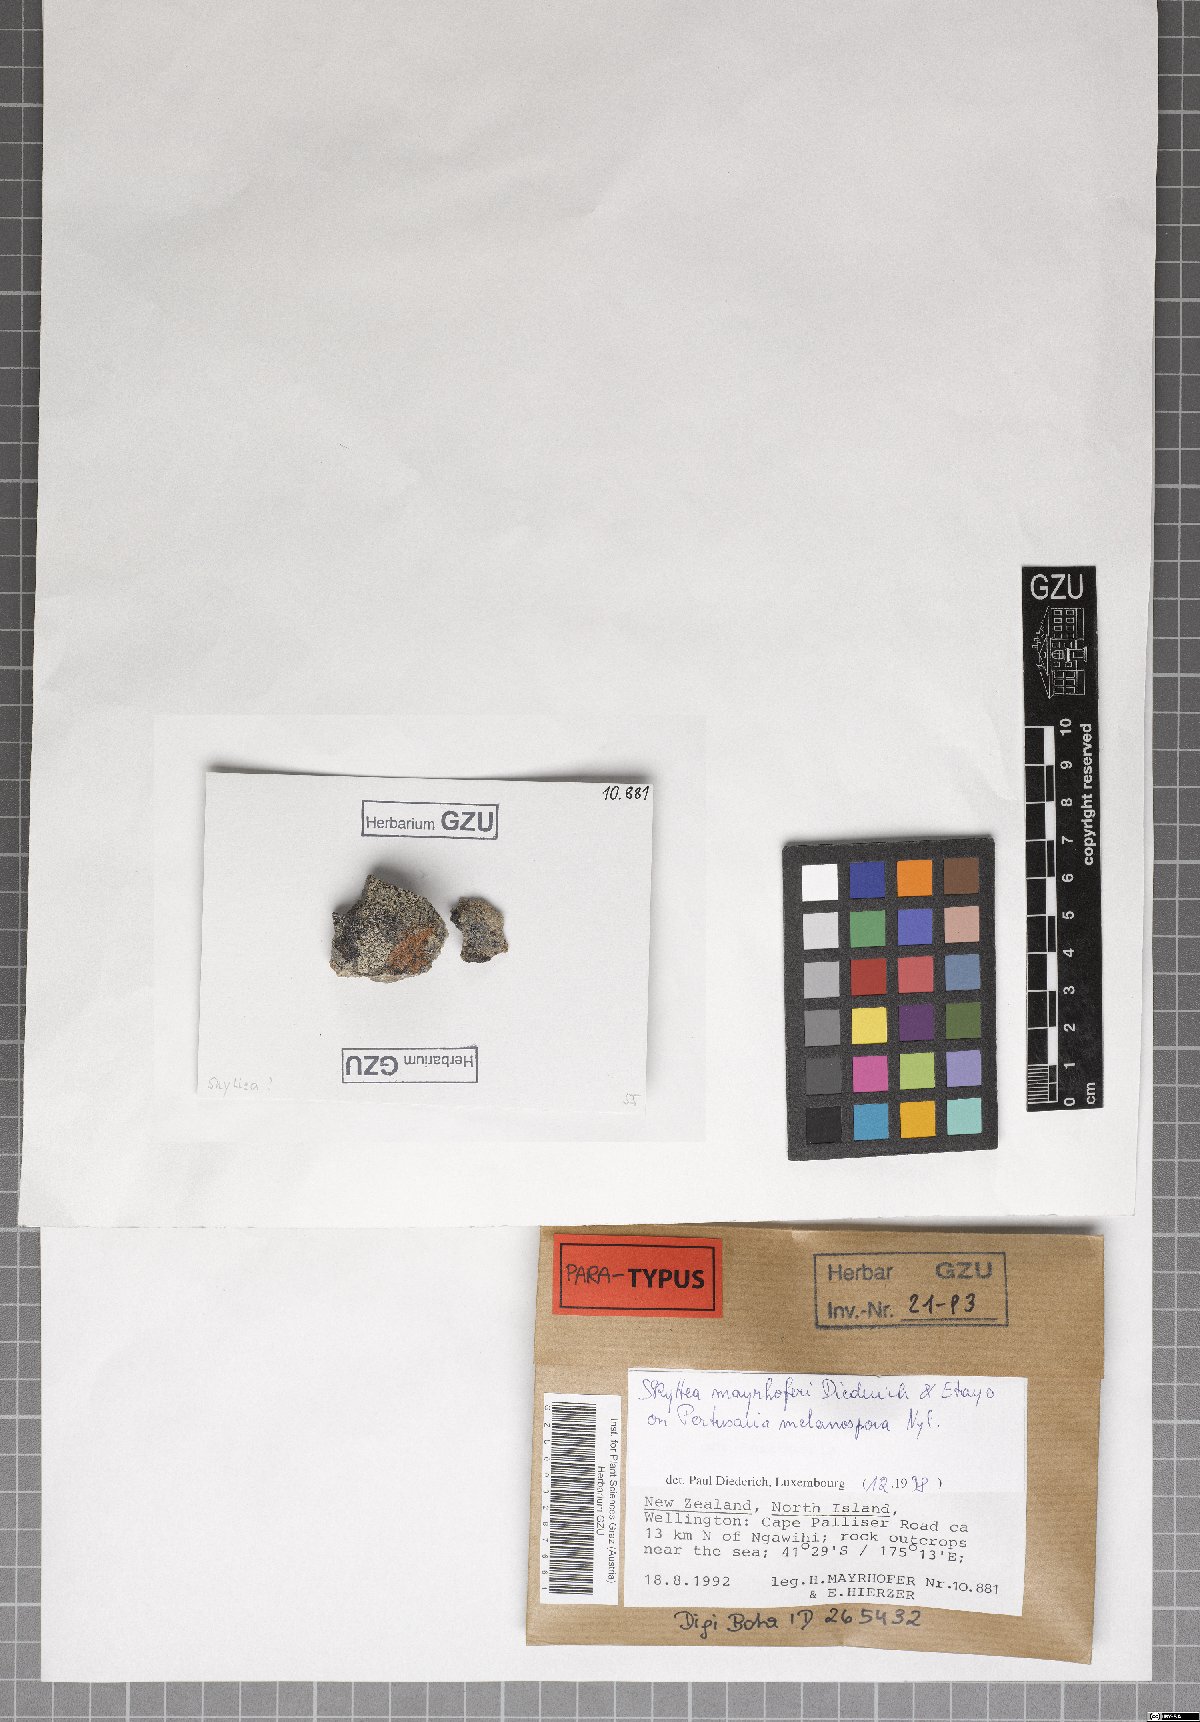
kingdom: Fungi
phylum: Ascomycota
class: Leotiomycetes
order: Helotiales
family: Cordieritidaceae
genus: Skyttea
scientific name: Skyttea mayrhoferi
